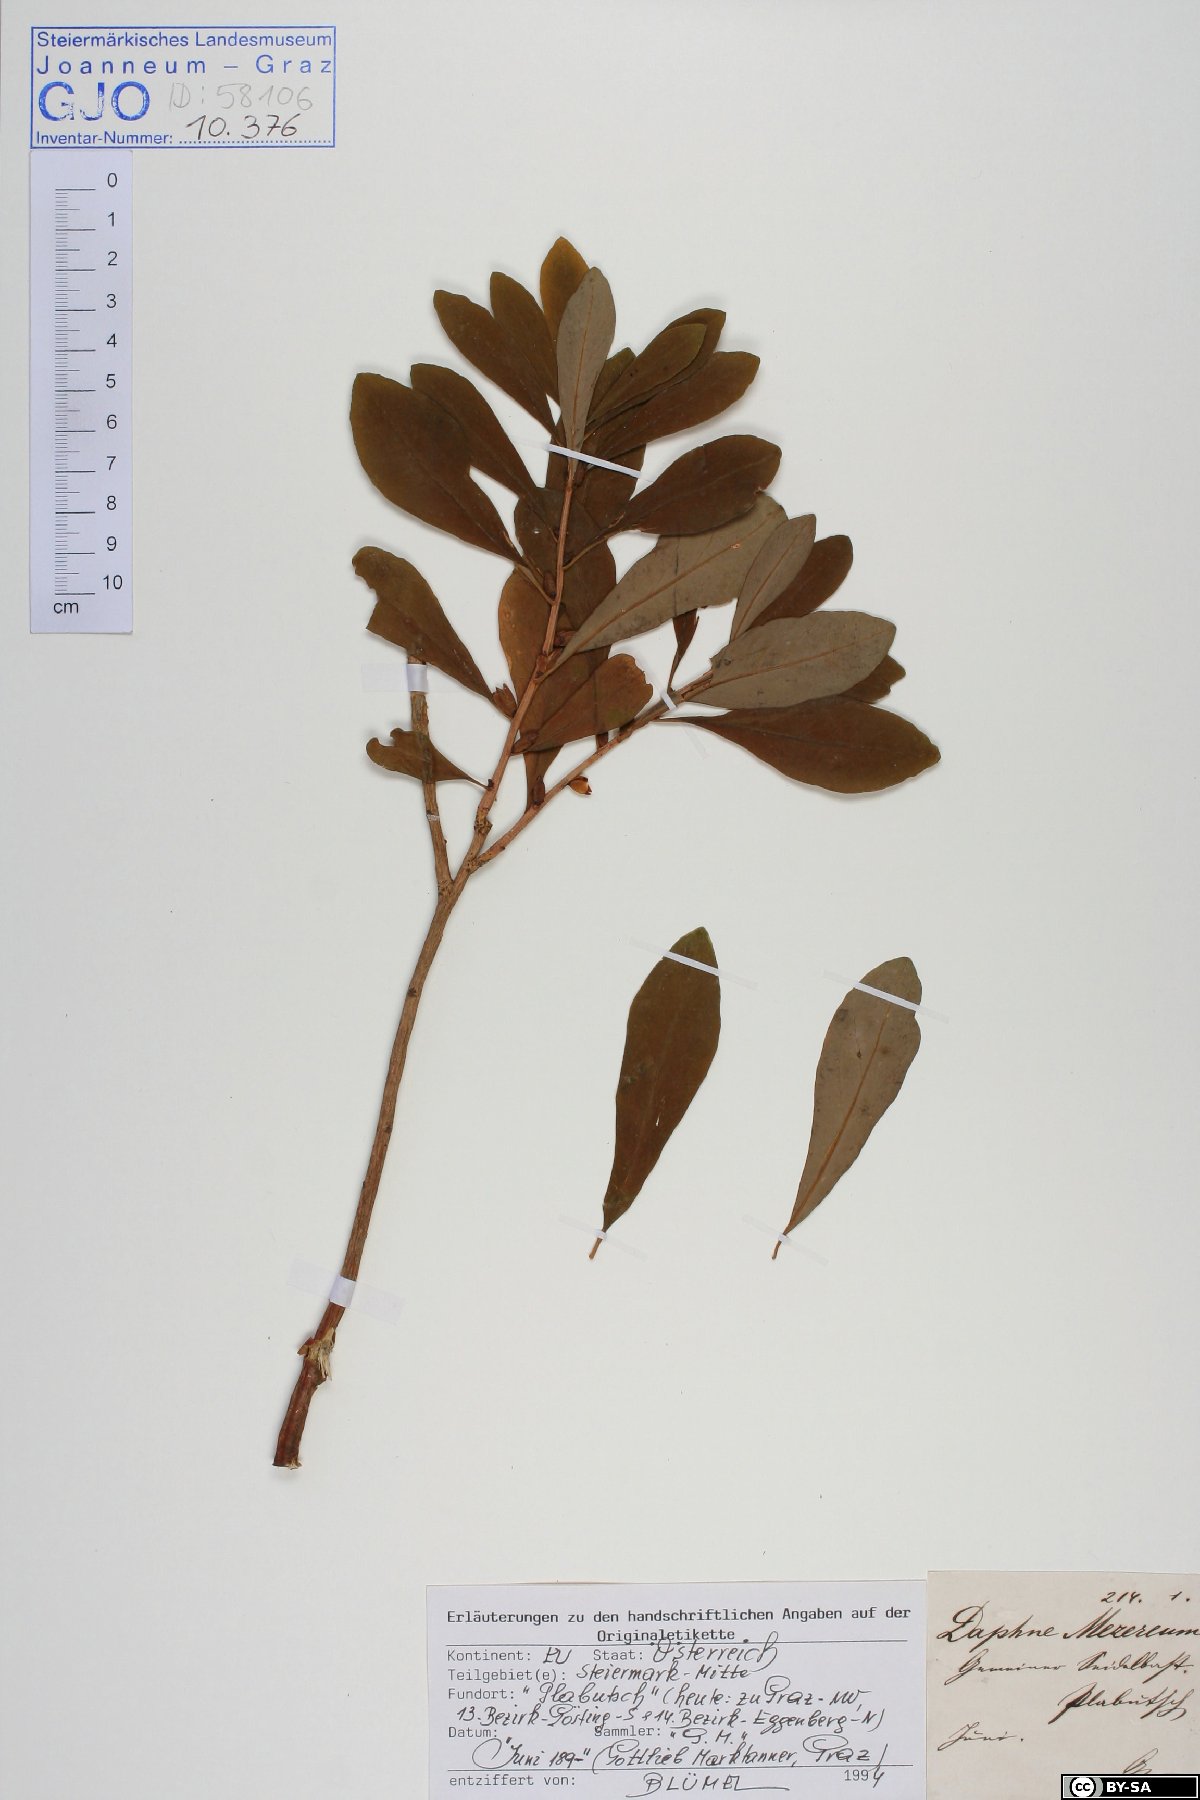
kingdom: Plantae
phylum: Tracheophyta
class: Magnoliopsida
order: Malvales
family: Thymelaeaceae
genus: Daphne
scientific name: Daphne mezereum
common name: Mezereon
